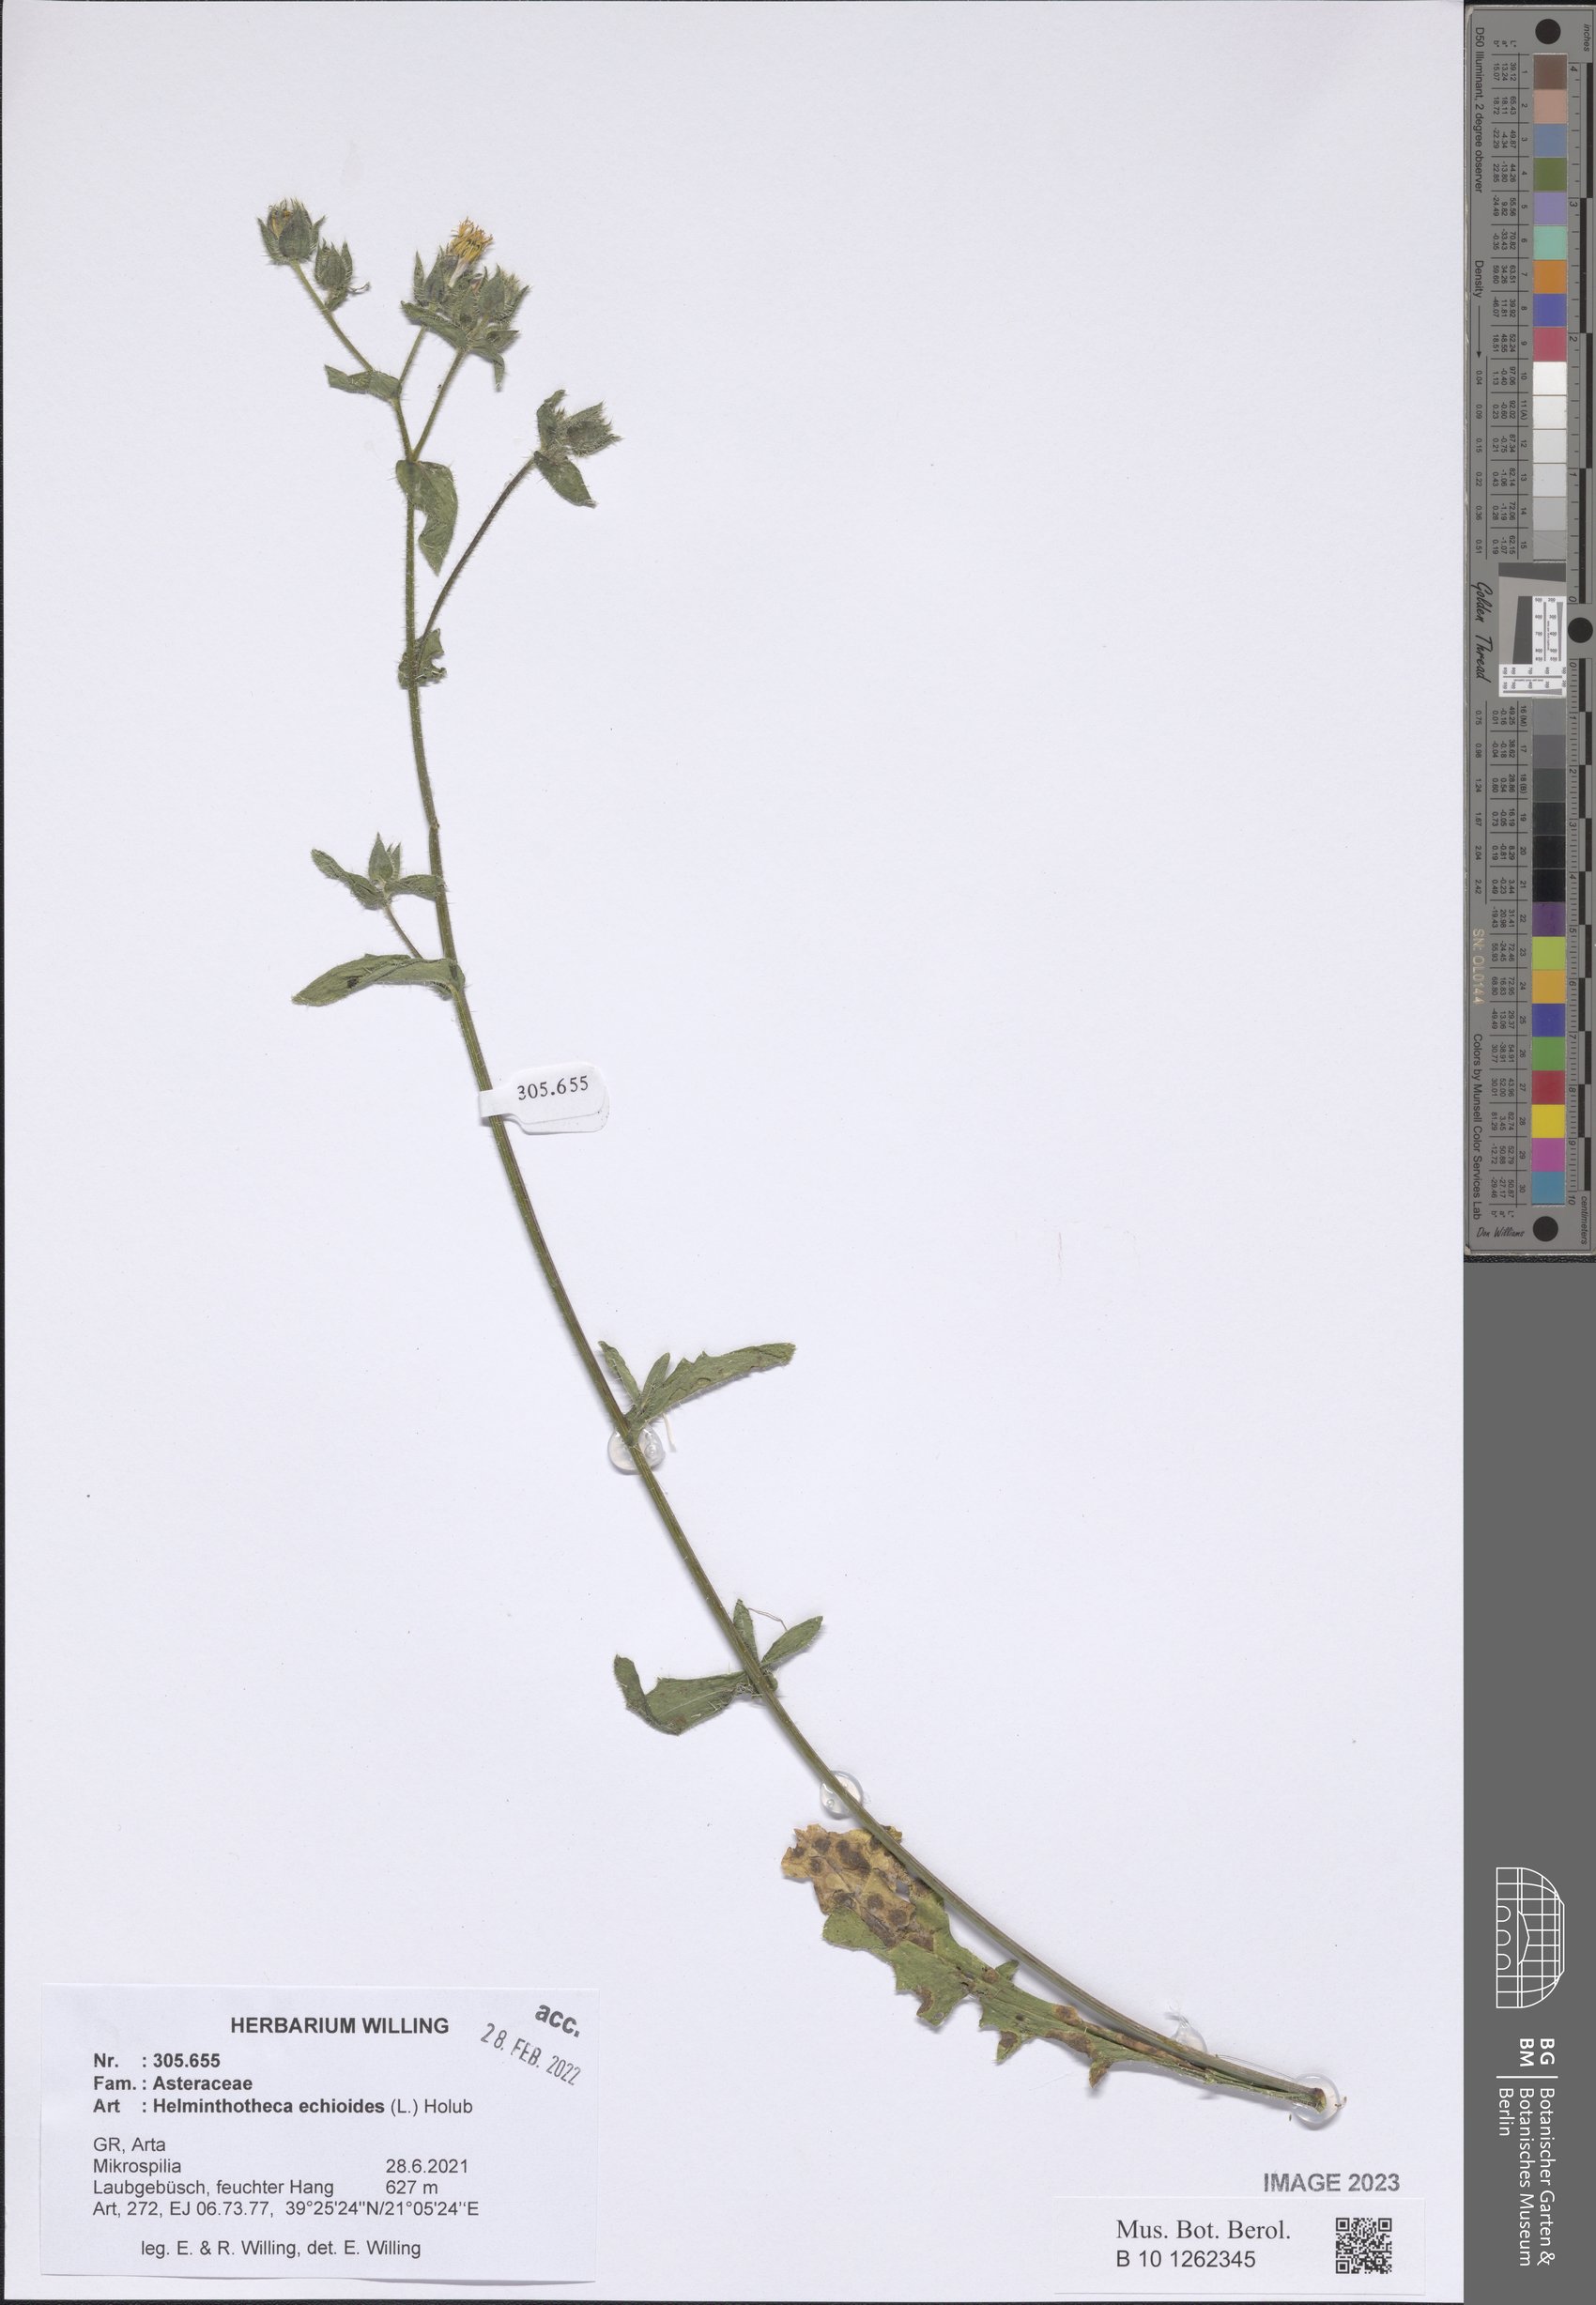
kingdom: Plantae
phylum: Tracheophyta
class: Magnoliopsida
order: Asterales
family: Asteraceae
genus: Helminthotheca
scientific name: Helminthotheca echioides
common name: Ox-tongue
